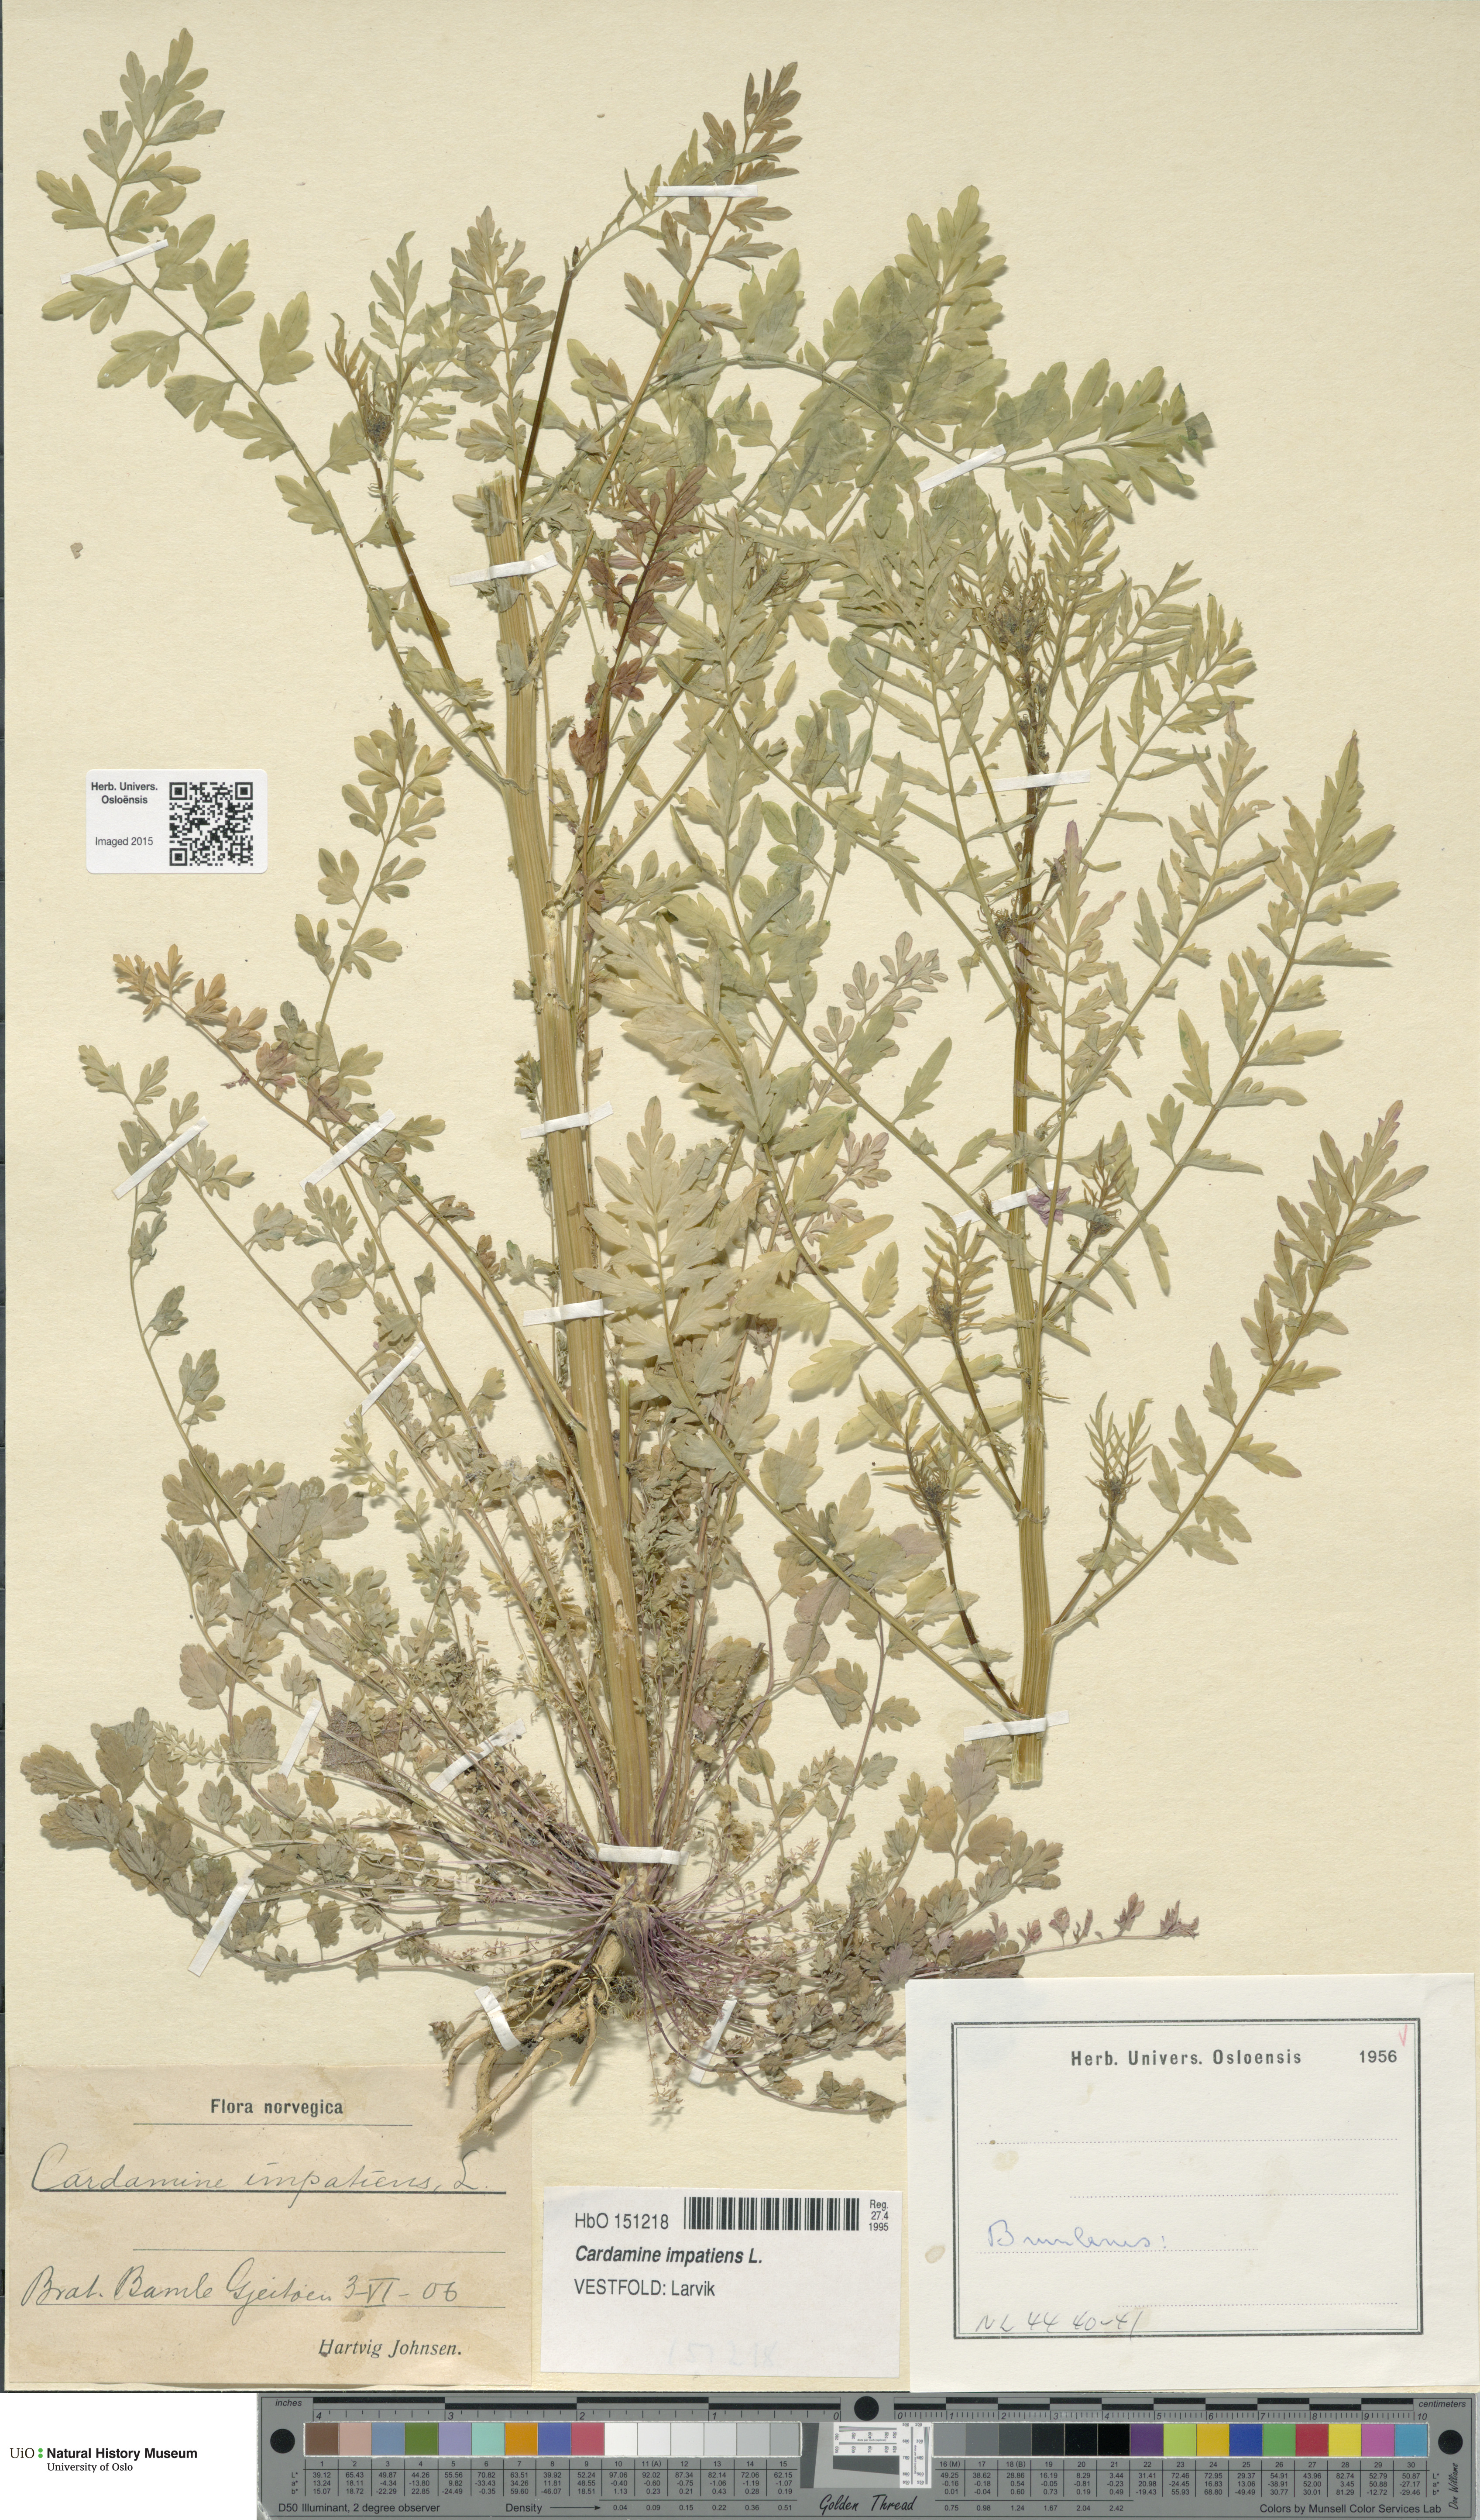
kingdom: Plantae
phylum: Tracheophyta
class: Magnoliopsida
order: Brassicales
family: Brassicaceae
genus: Cardamine
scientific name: Cardamine impatiens
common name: Narrow-leaved bitter-cress
